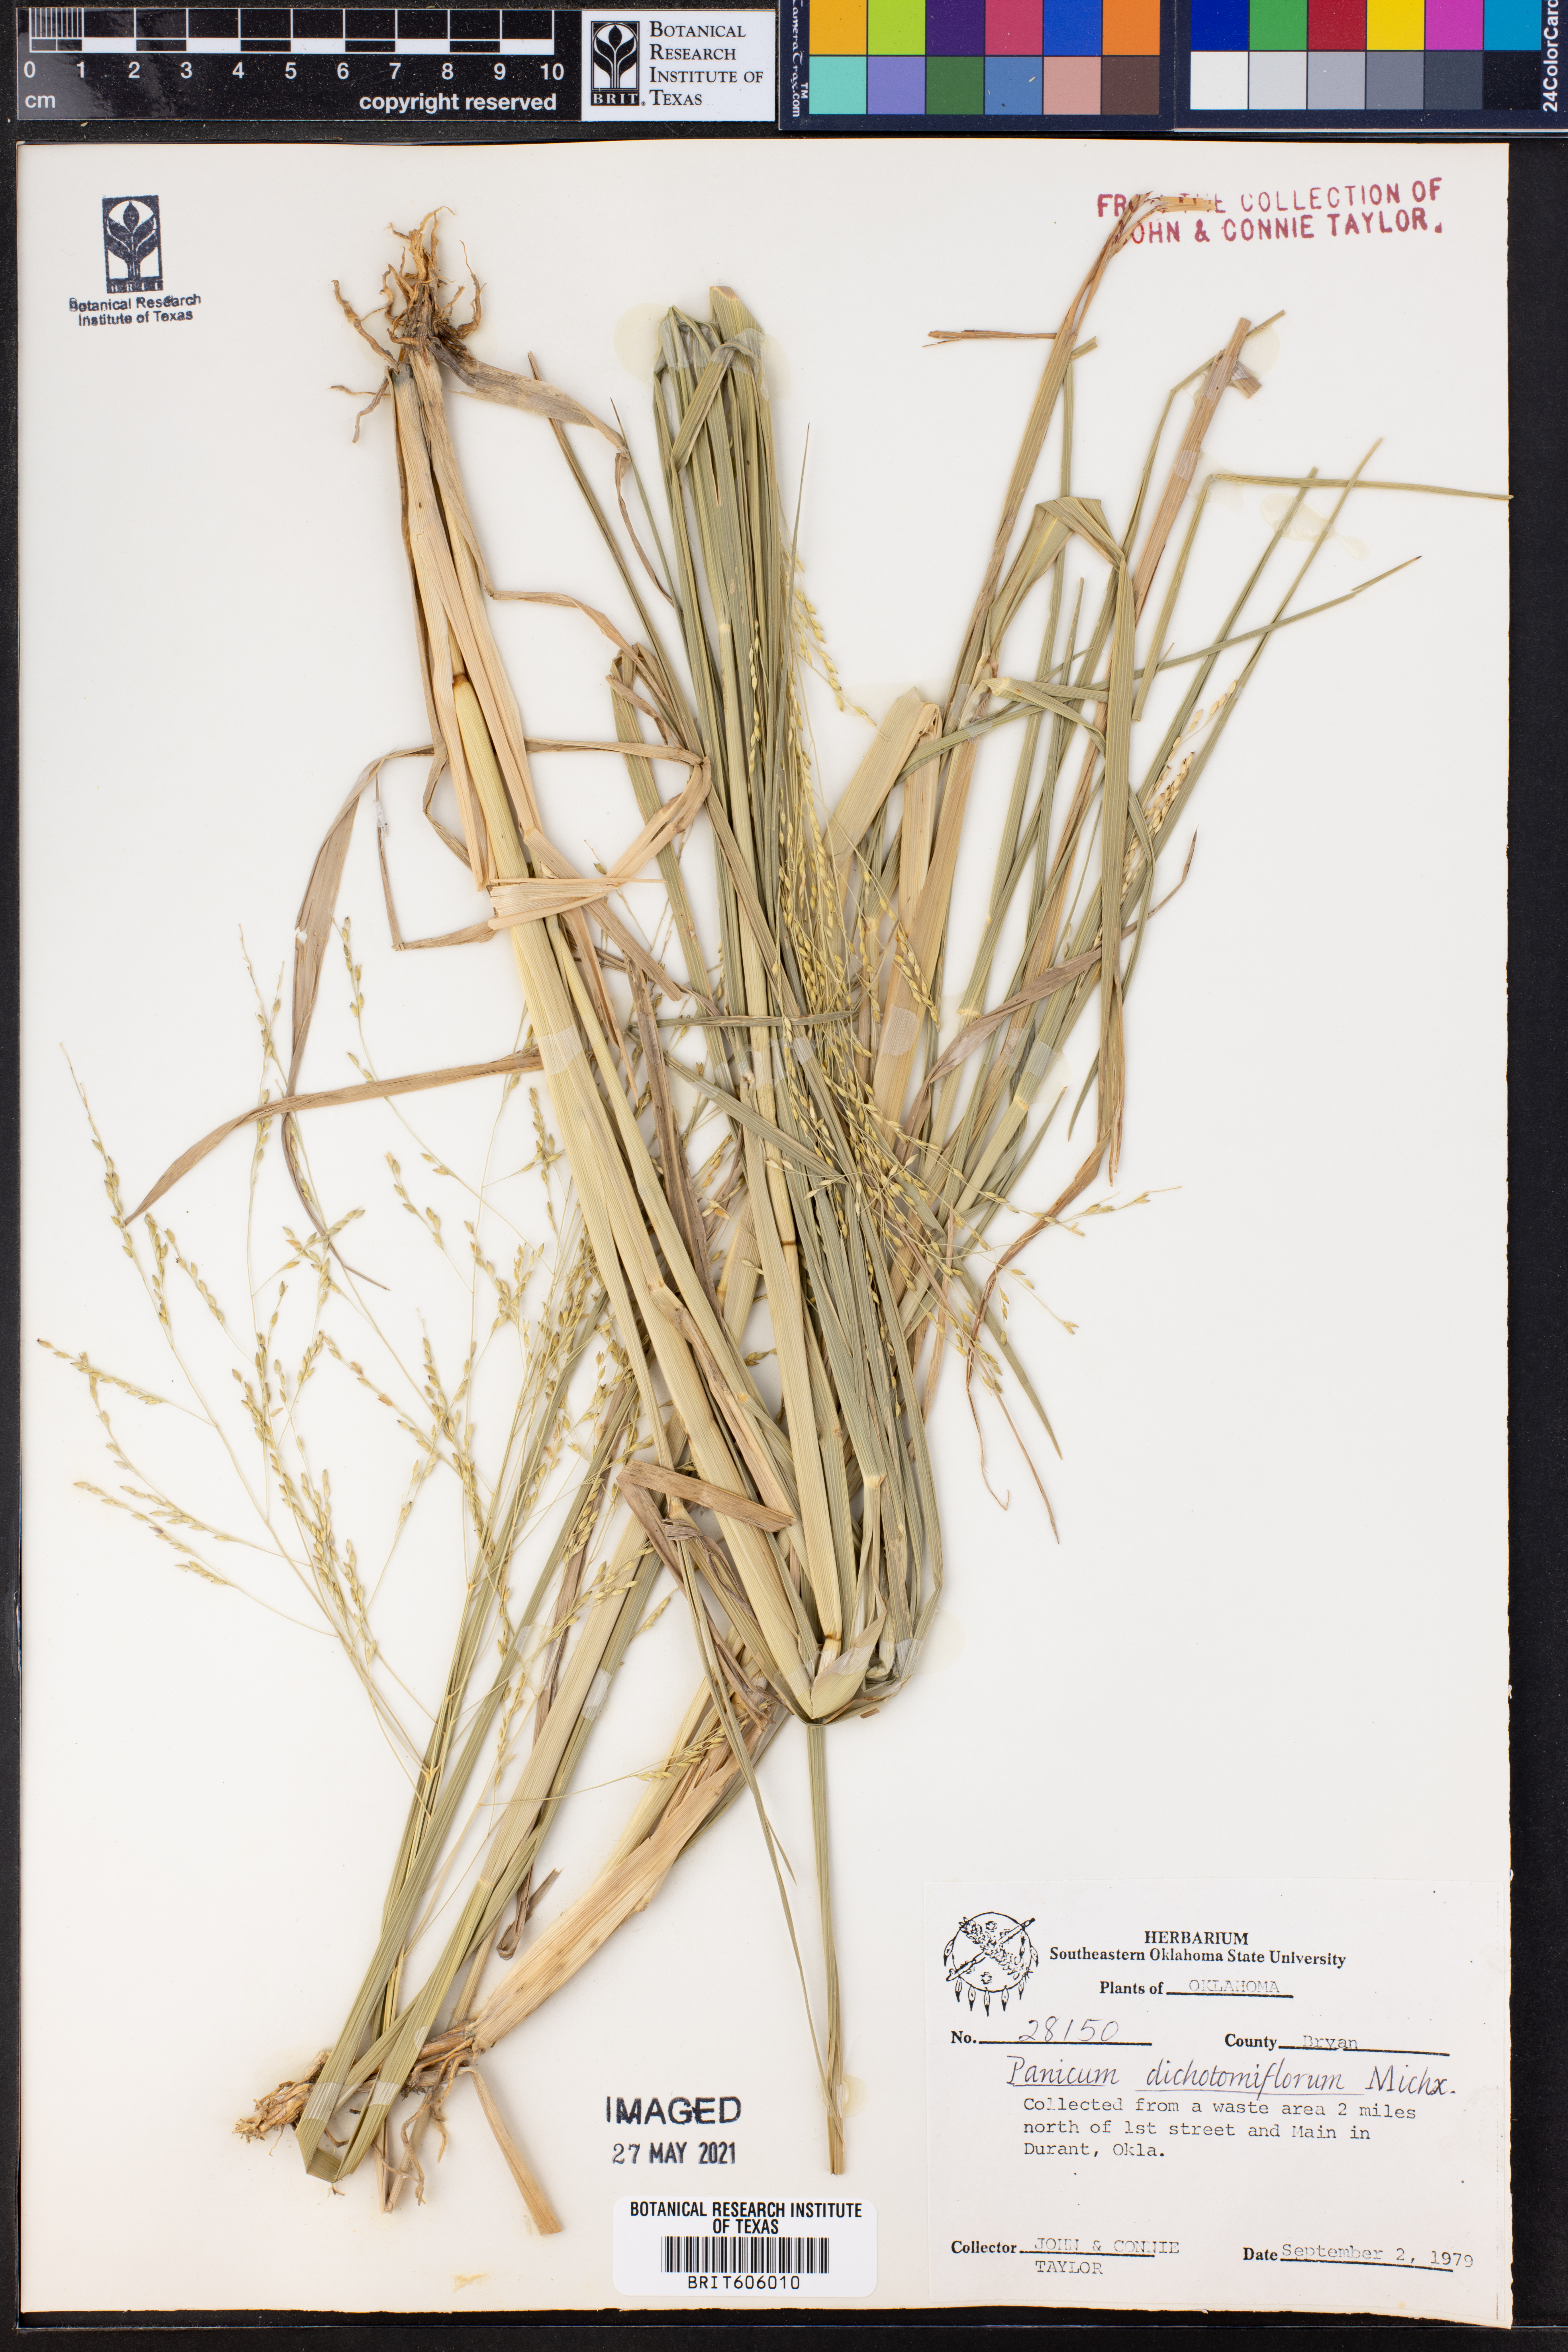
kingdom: Plantae
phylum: Tracheophyta
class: Liliopsida
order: Poales
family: Poaceae
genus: Panicum
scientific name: Panicum dichotomiflorum
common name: Autumn millet
